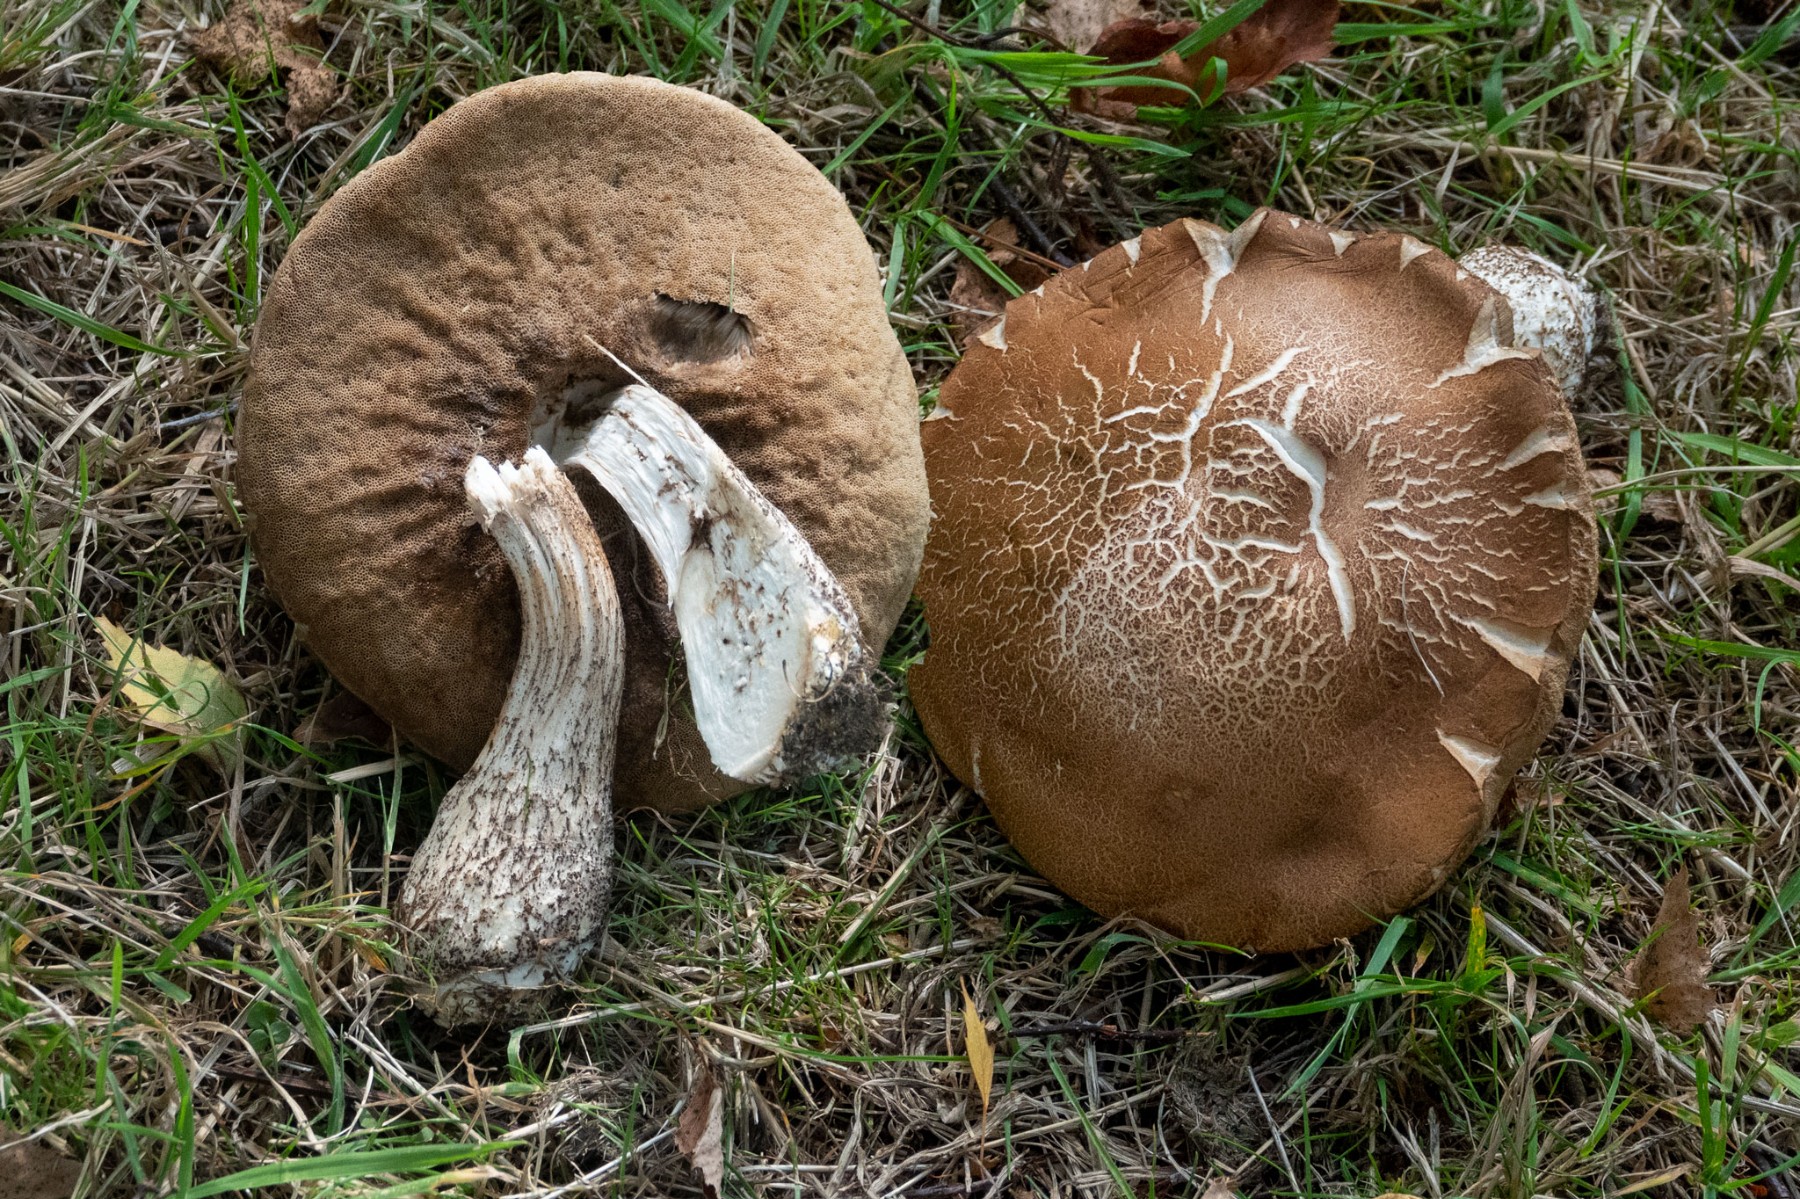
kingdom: Fungi
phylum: Basidiomycota
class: Agaricomycetes
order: Boletales
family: Boletaceae
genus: Leccinum
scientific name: Leccinum scabrum
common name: brun skælrørhat
